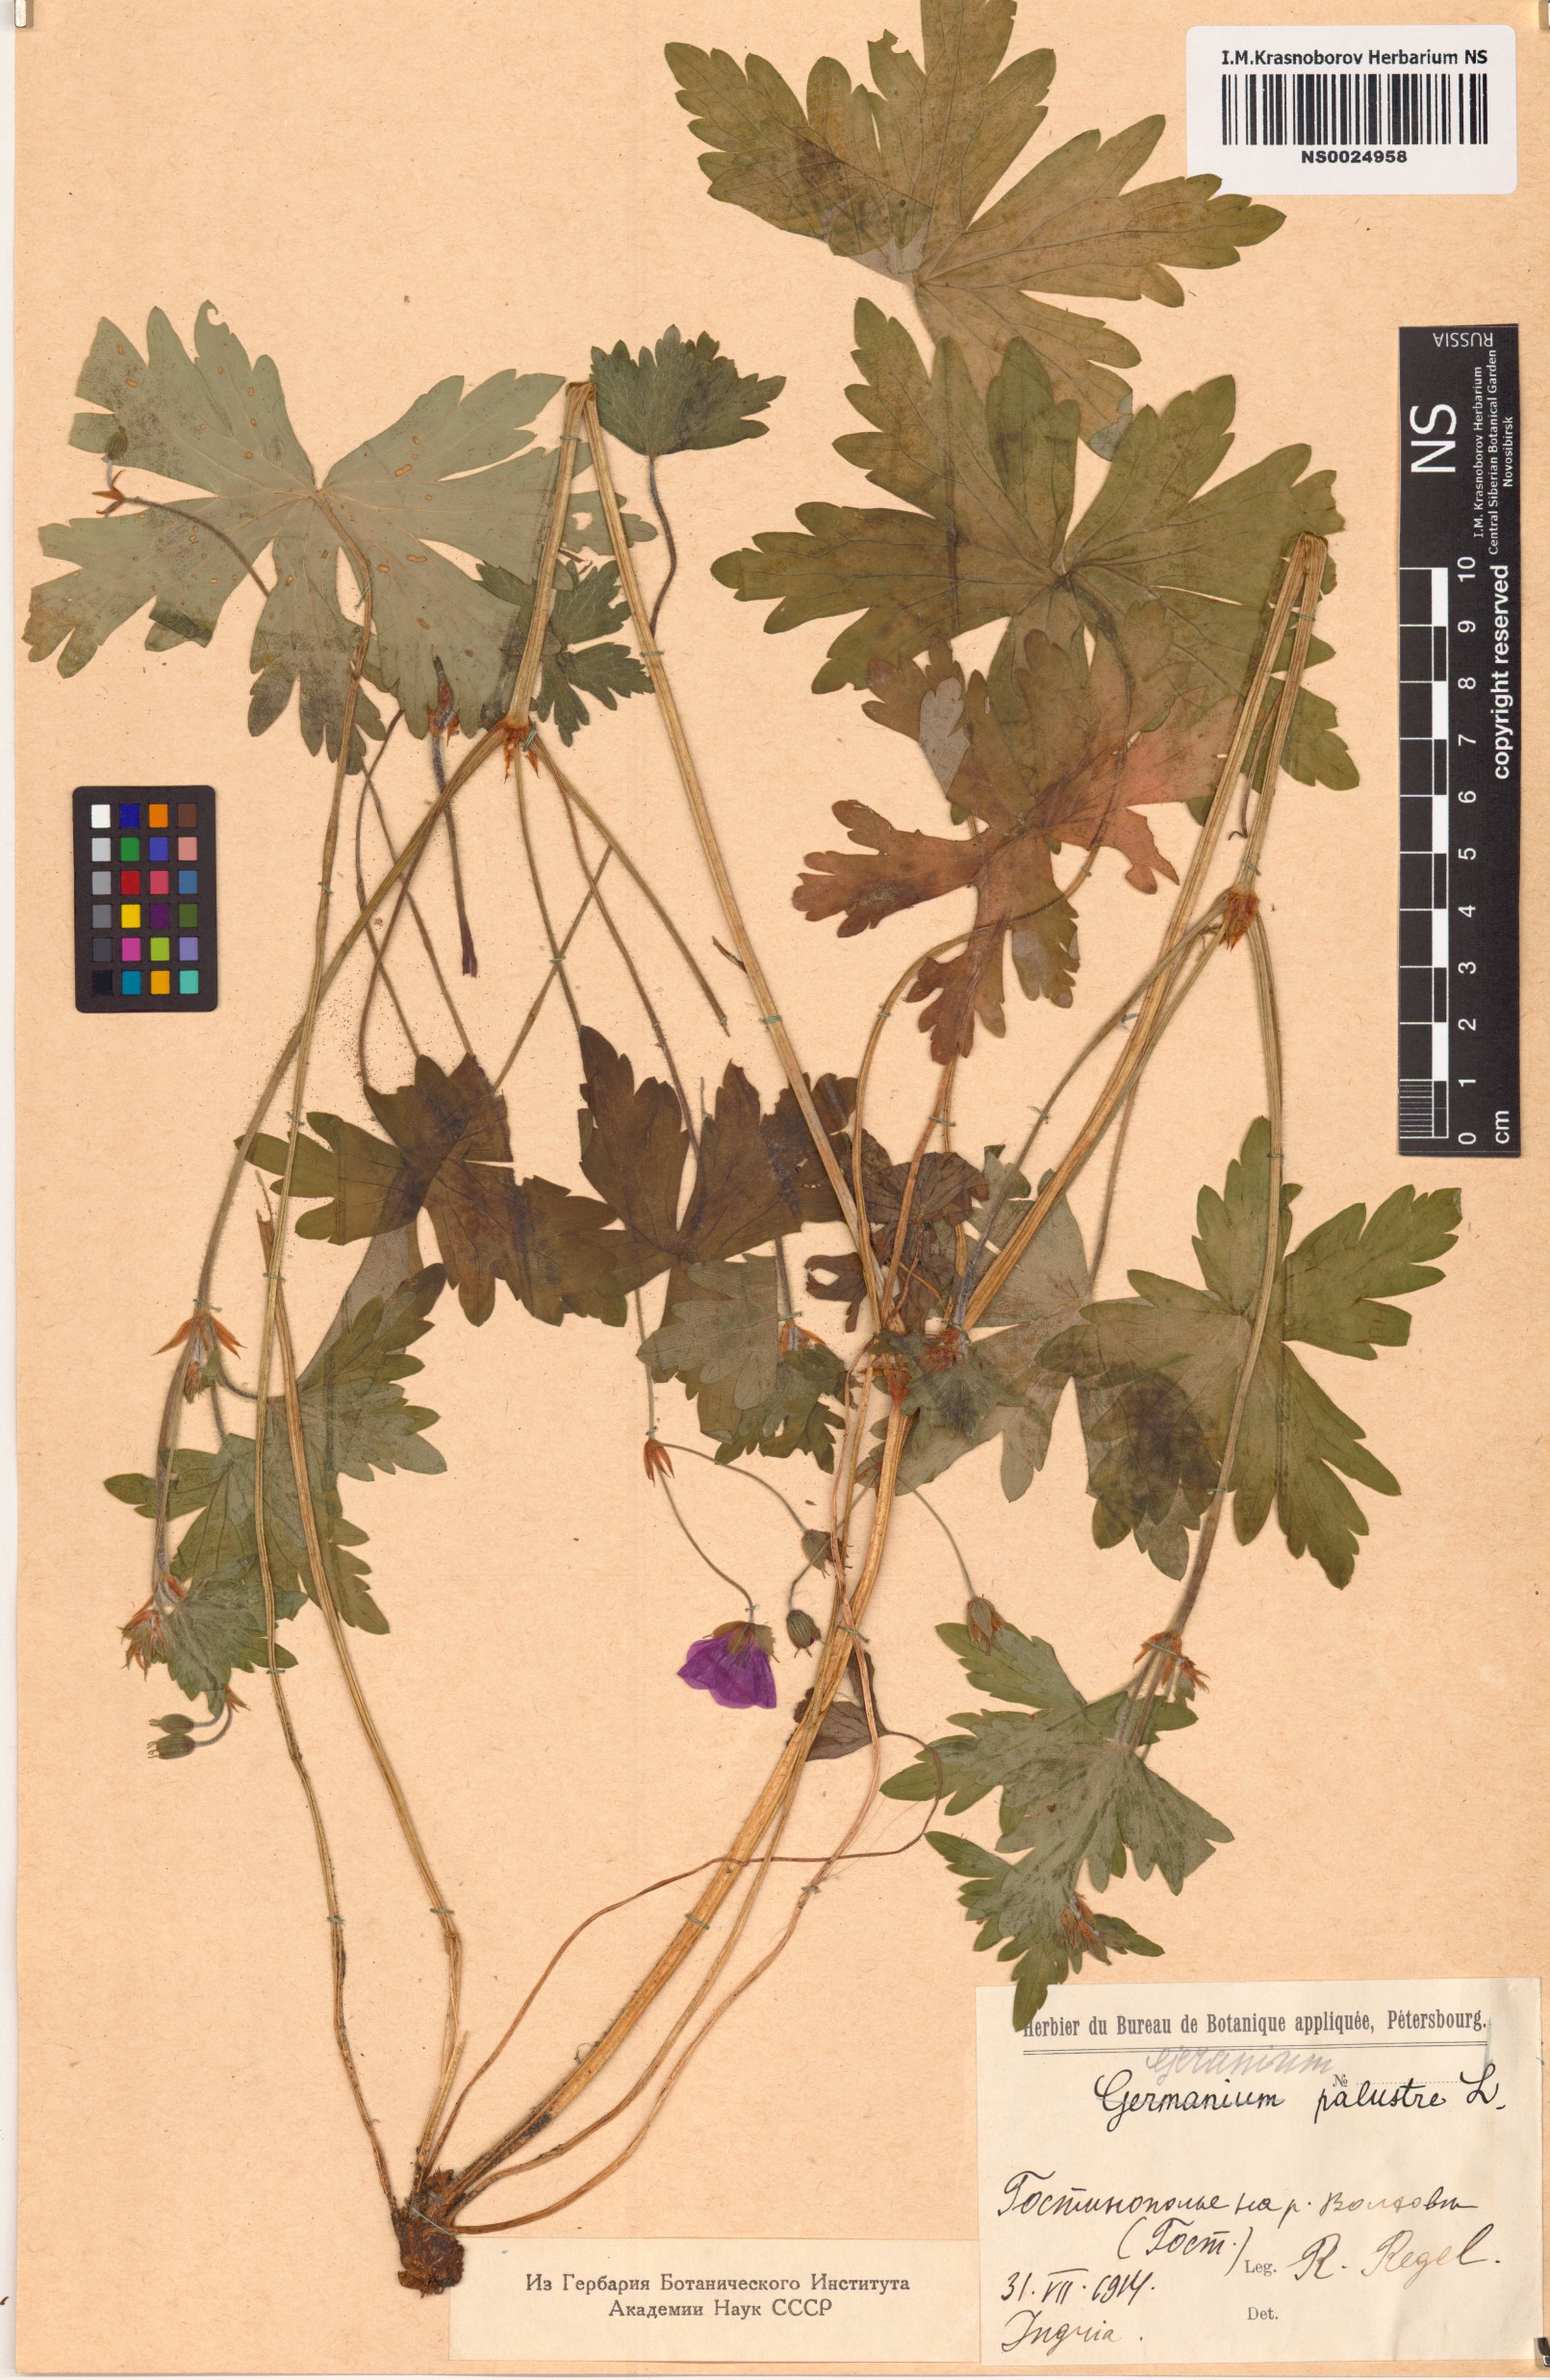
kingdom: Plantae
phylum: Tracheophyta
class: Magnoliopsida
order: Geraniales
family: Geraniaceae
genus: Geranium
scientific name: Geranium palustre
